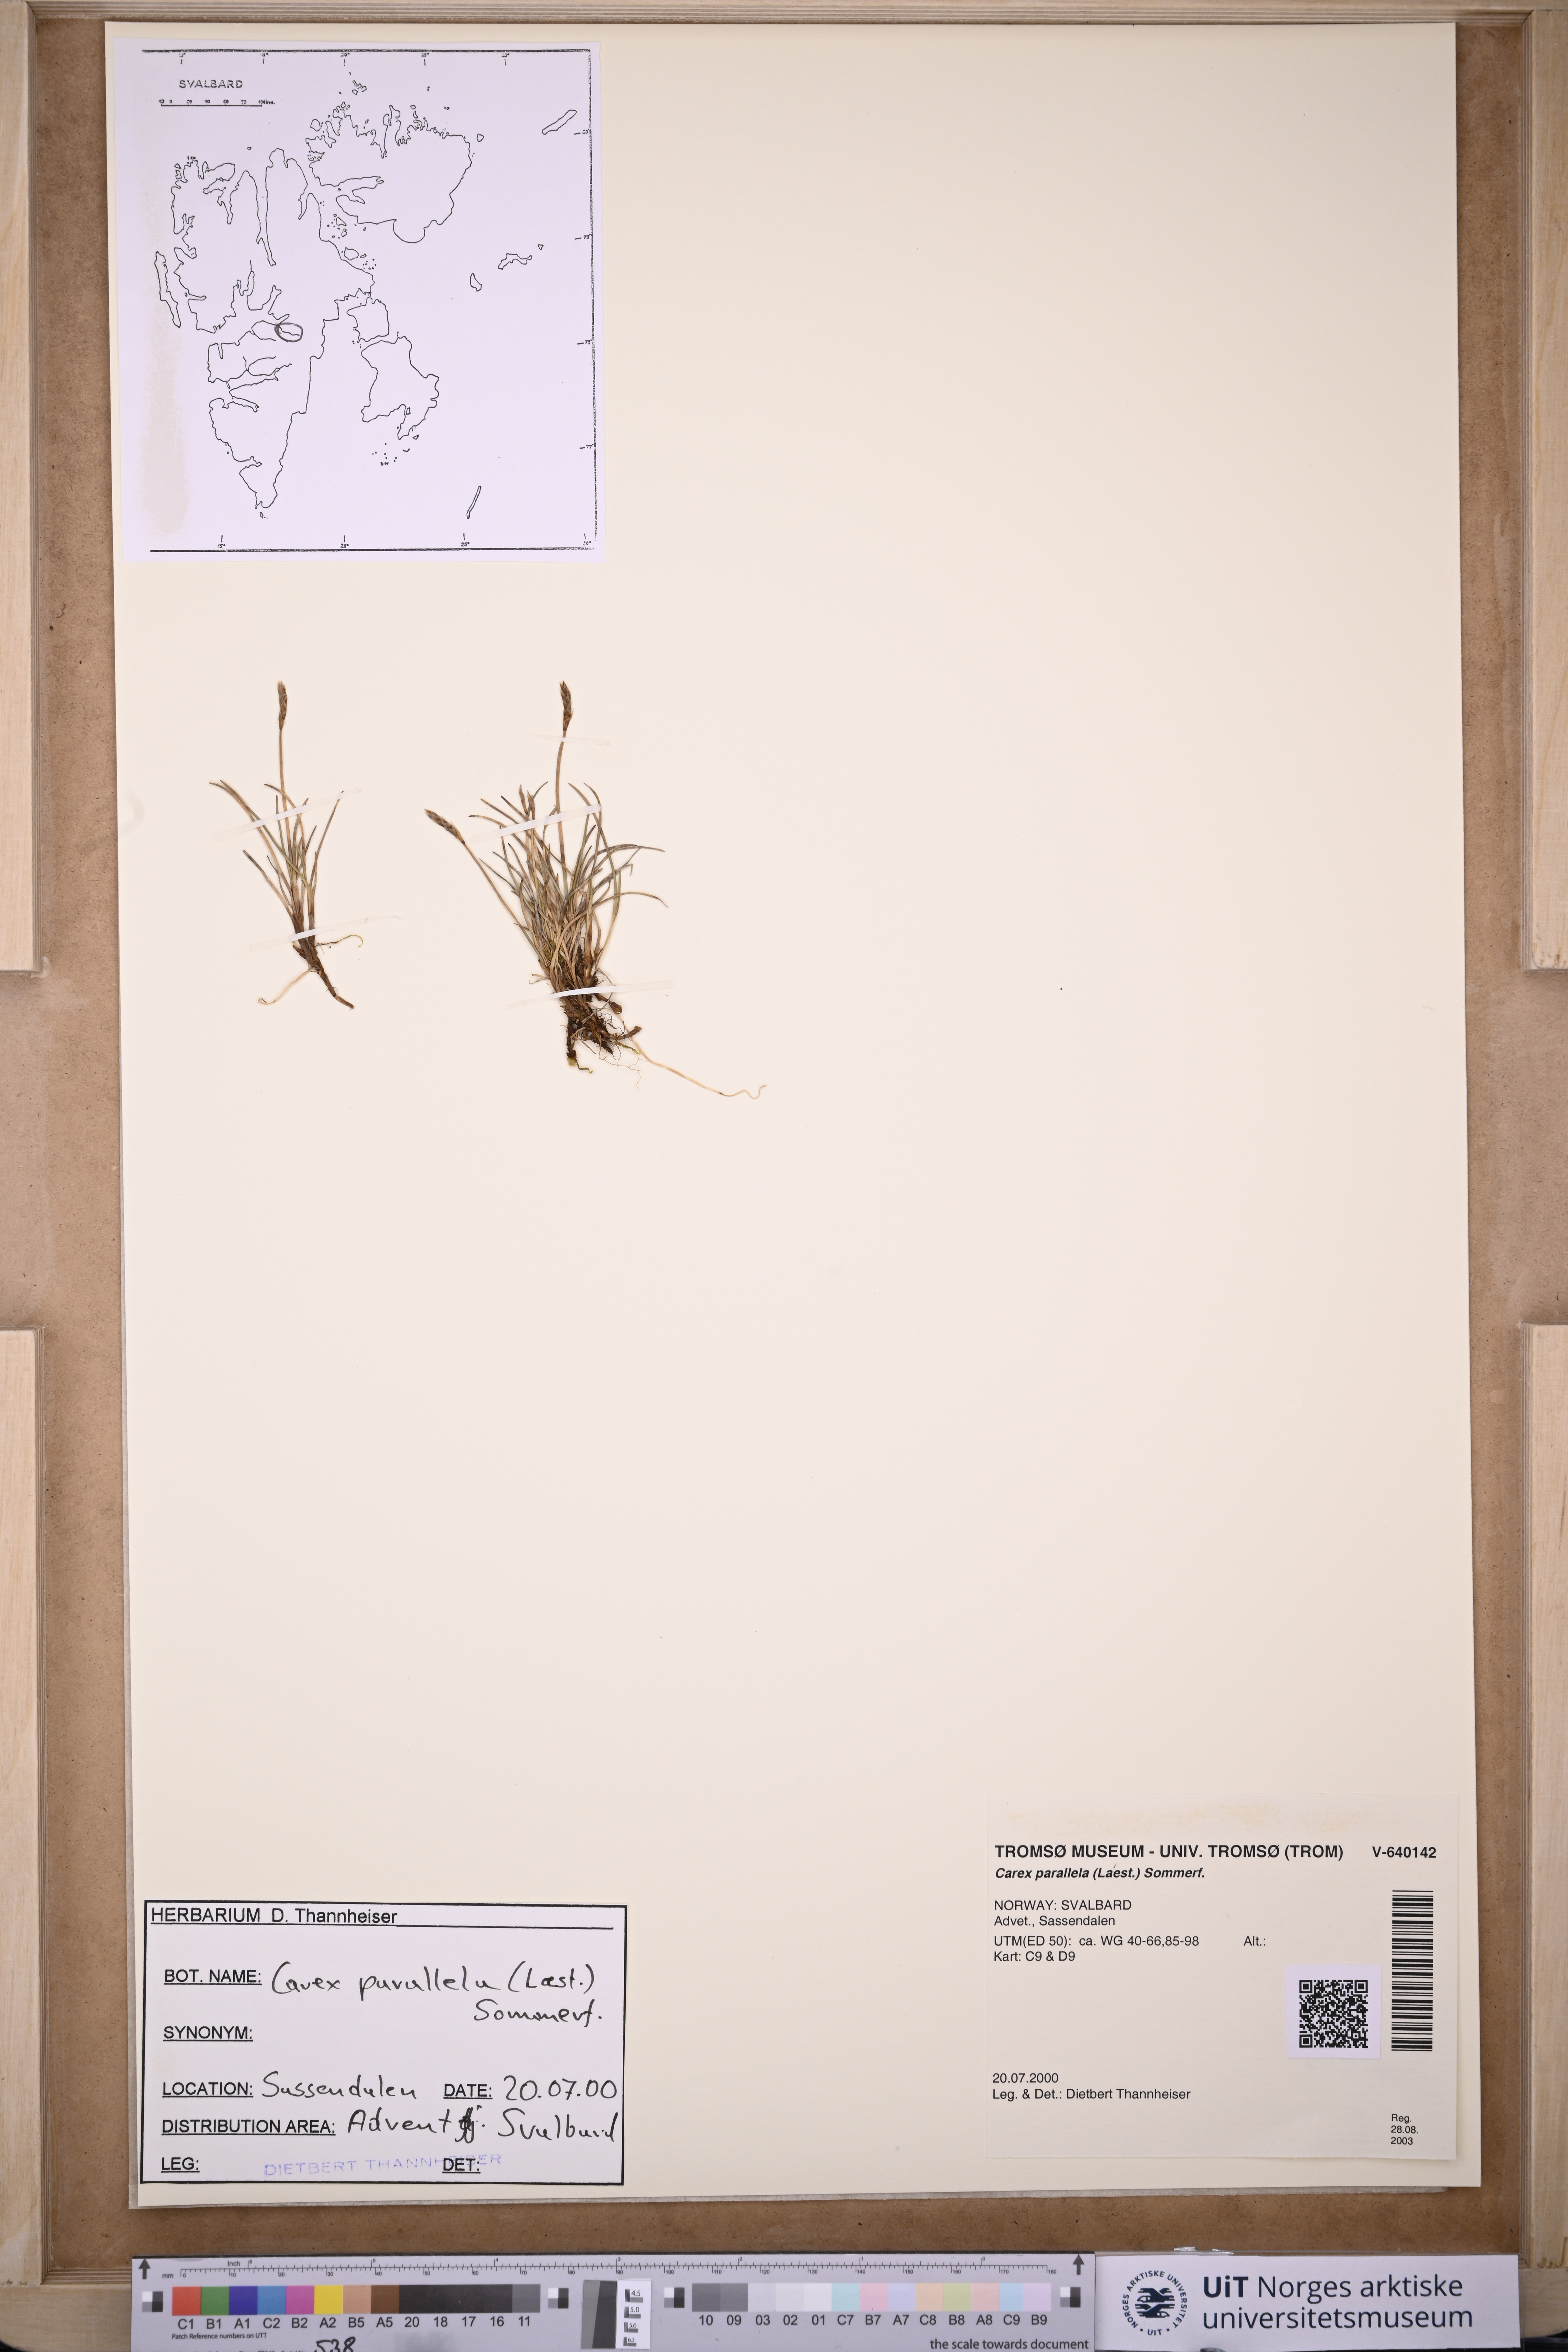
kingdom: Plantae
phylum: Tracheophyta
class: Liliopsida
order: Poales
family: Cyperaceae
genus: Carex
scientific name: Carex parallela
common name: Parallel sedge
